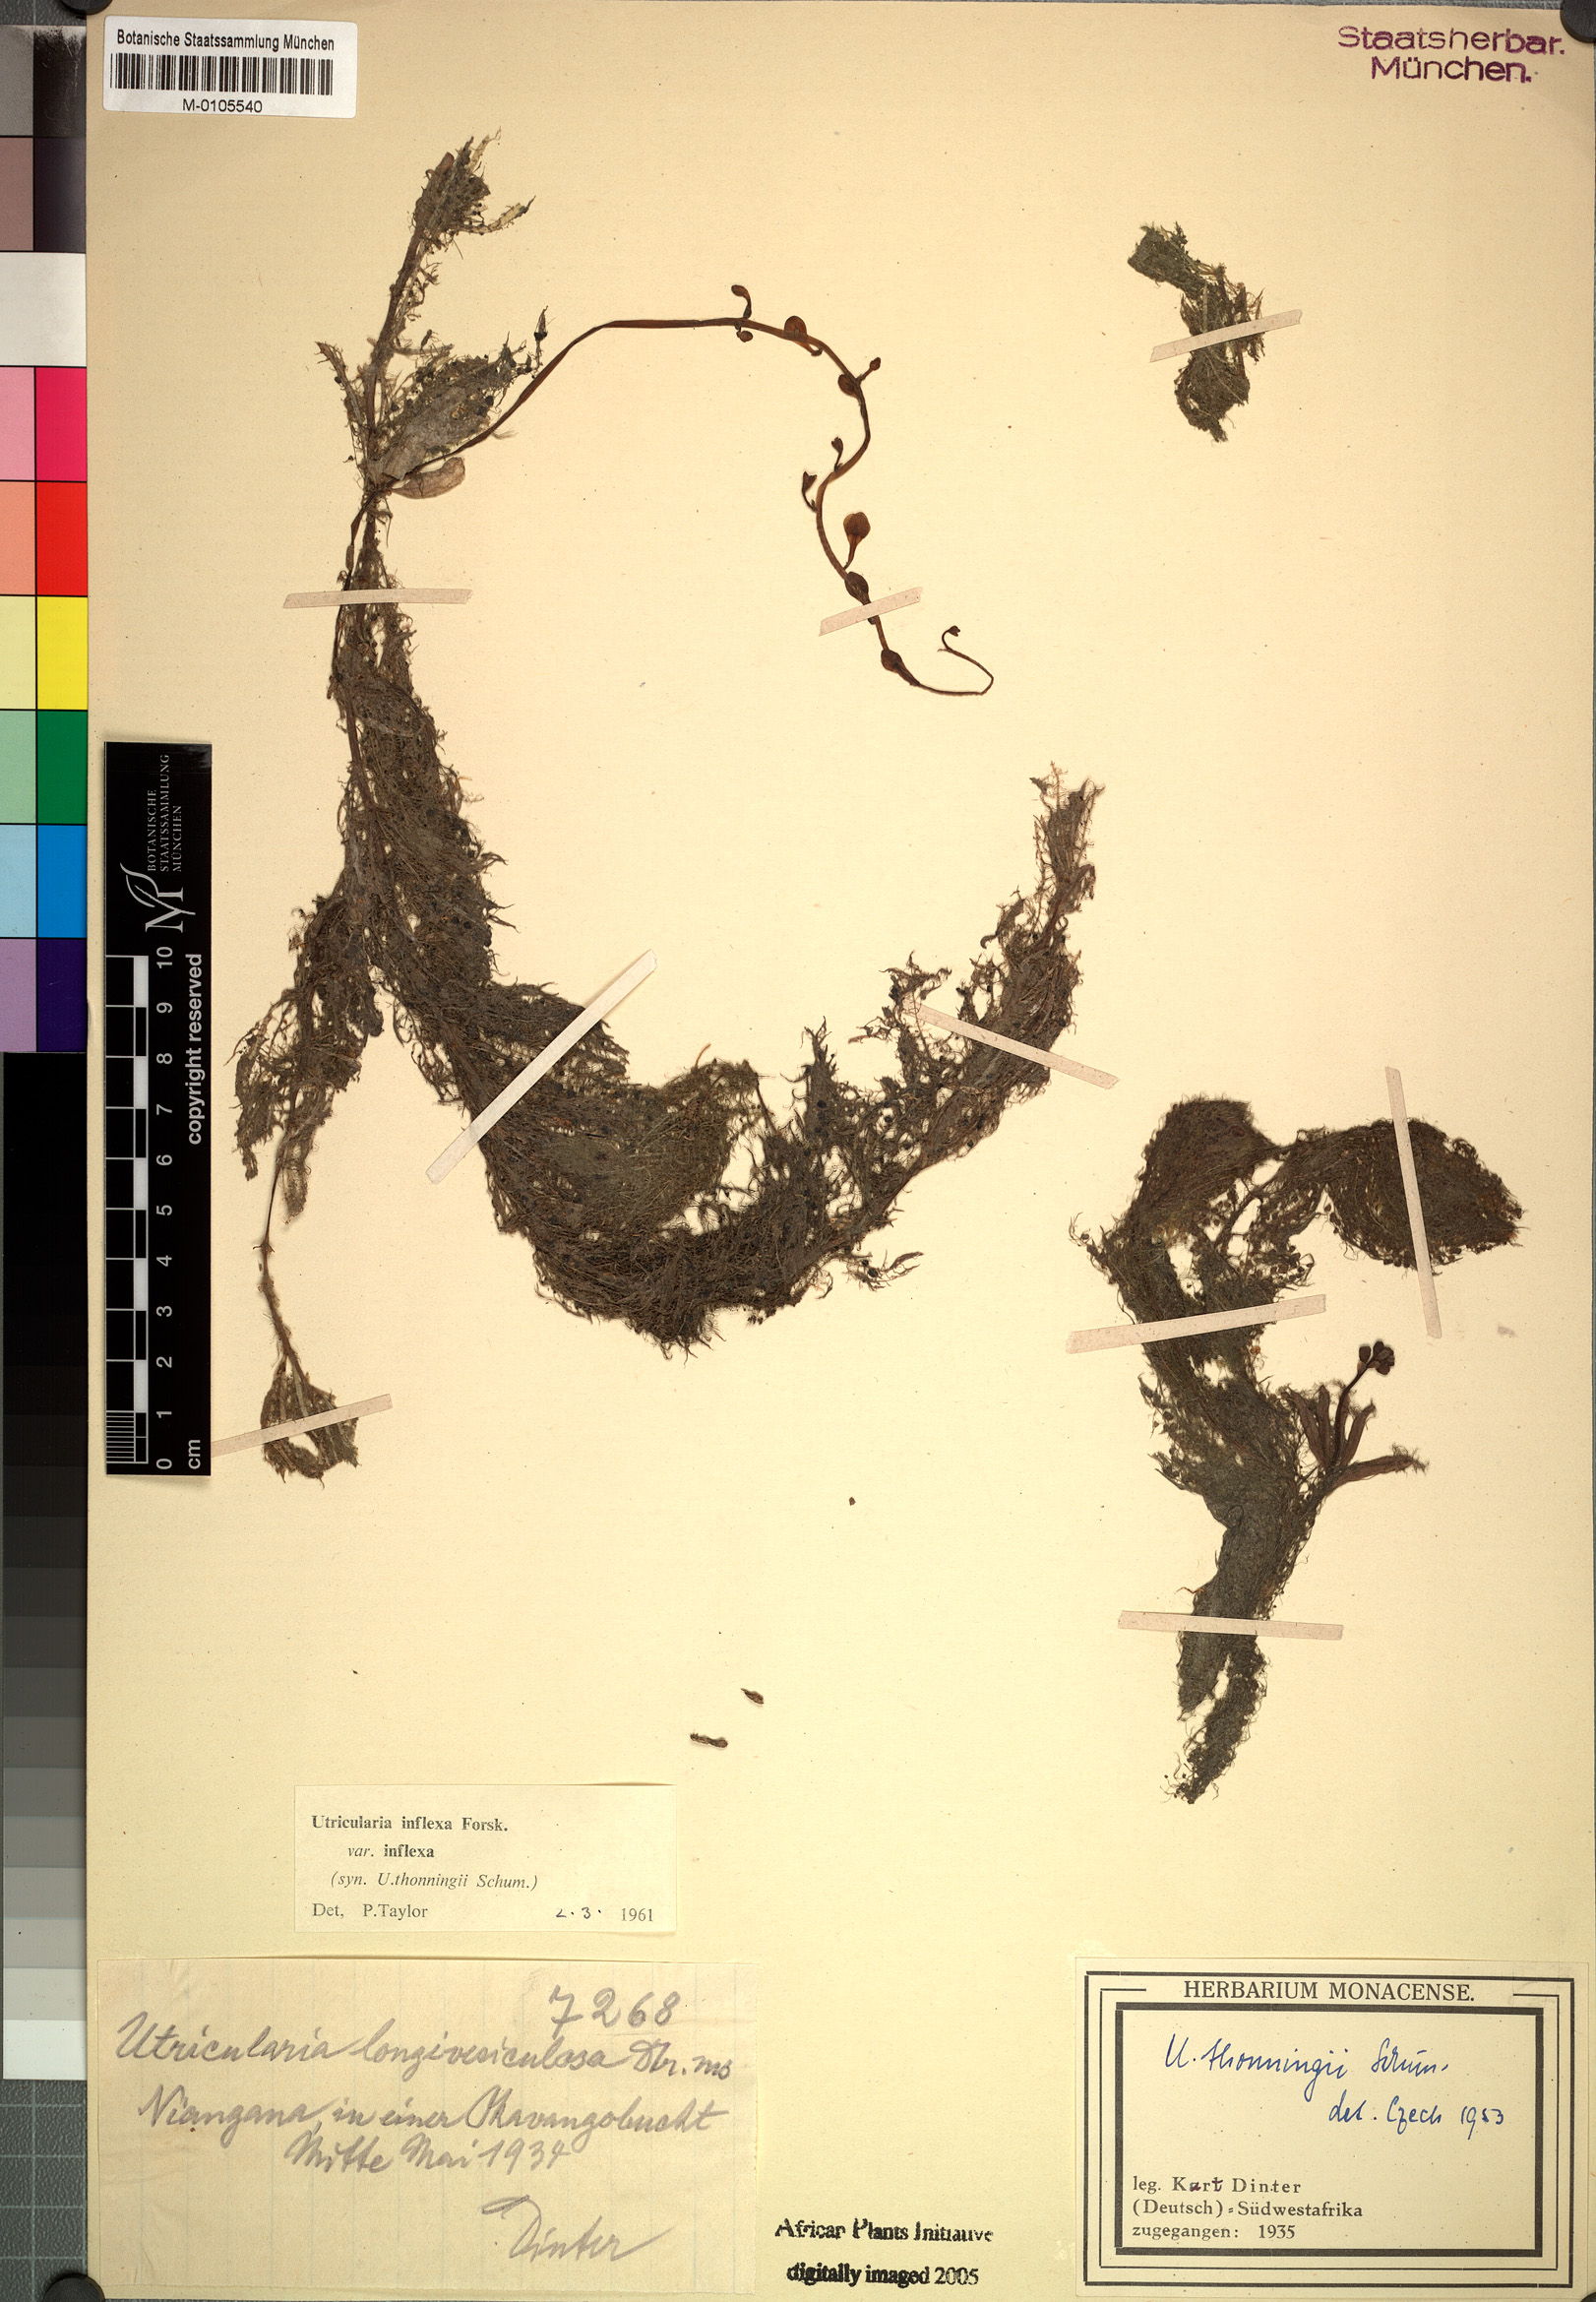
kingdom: Plantae
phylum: Tracheophyta
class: Magnoliopsida
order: Lamiales
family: Lentibulariaceae
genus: Utricularia
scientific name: Utricularia inflexa
